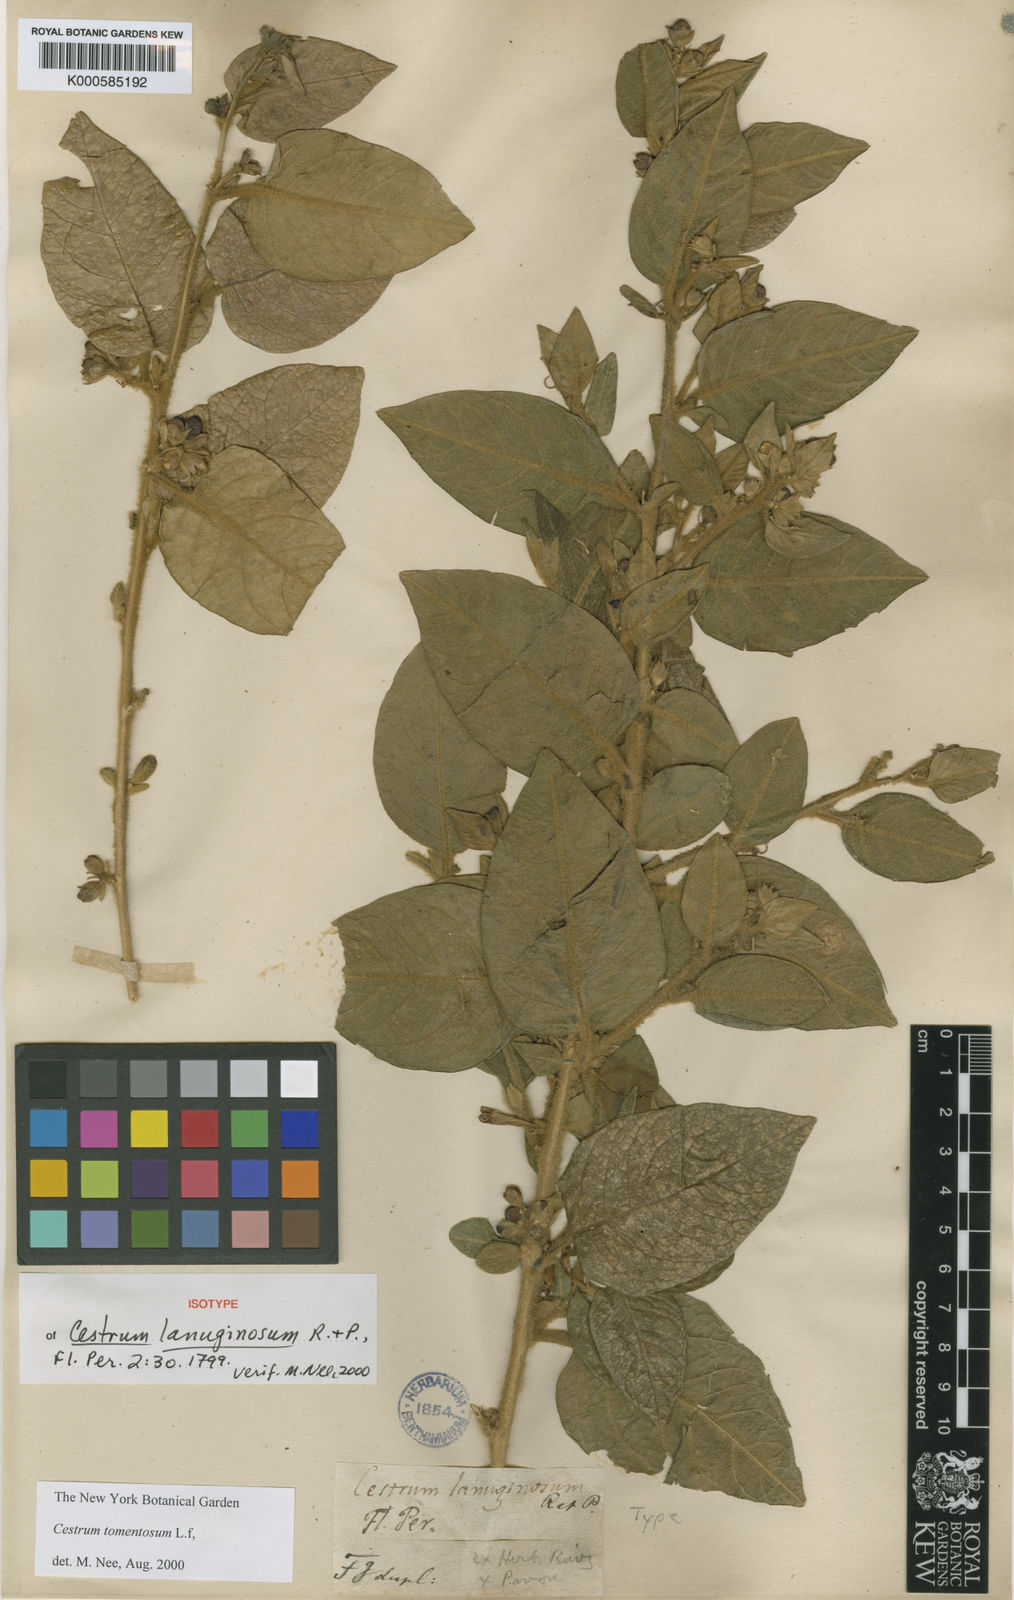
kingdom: Plantae
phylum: Tracheophyta
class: Magnoliopsida
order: Solanales
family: Solanaceae
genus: Cestrum
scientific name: Cestrum tomentosum
